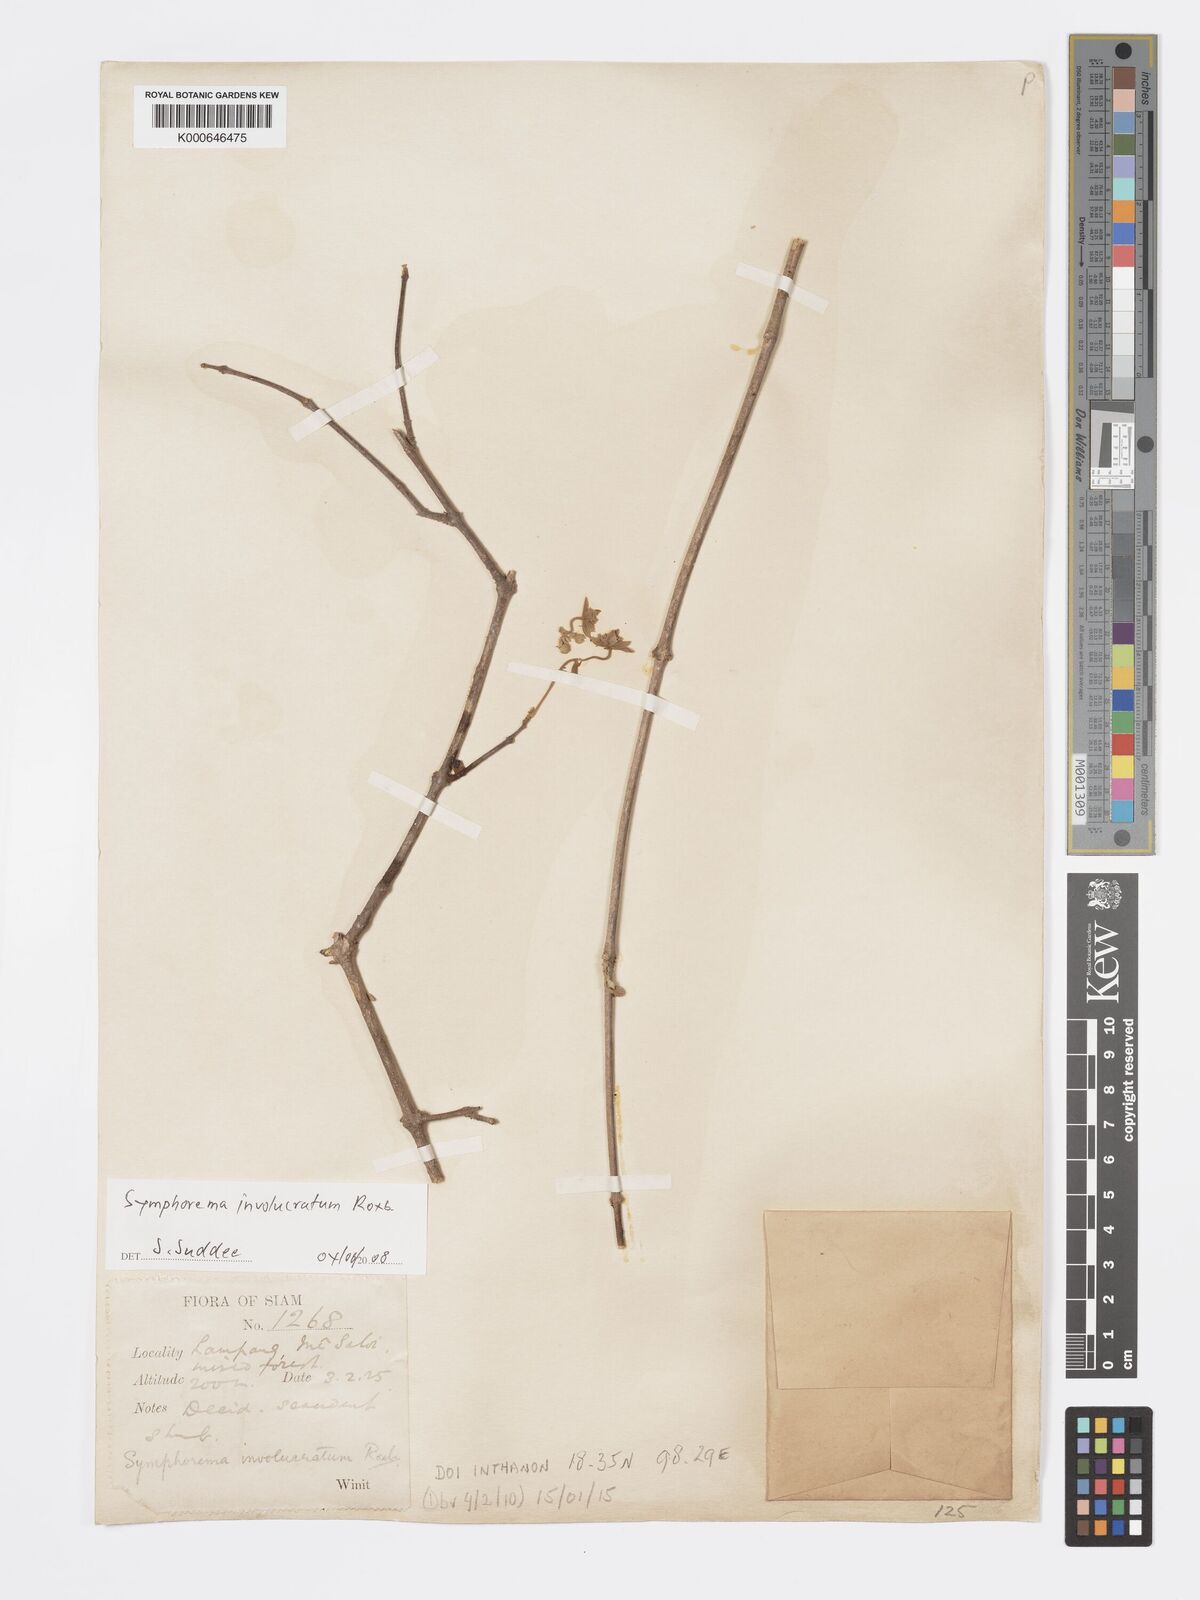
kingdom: Plantae
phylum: Tracheophyta
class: Magnoliopsida
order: Lamiales
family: Lamiaceae
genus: Symphorema
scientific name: Symphorema involucratum
